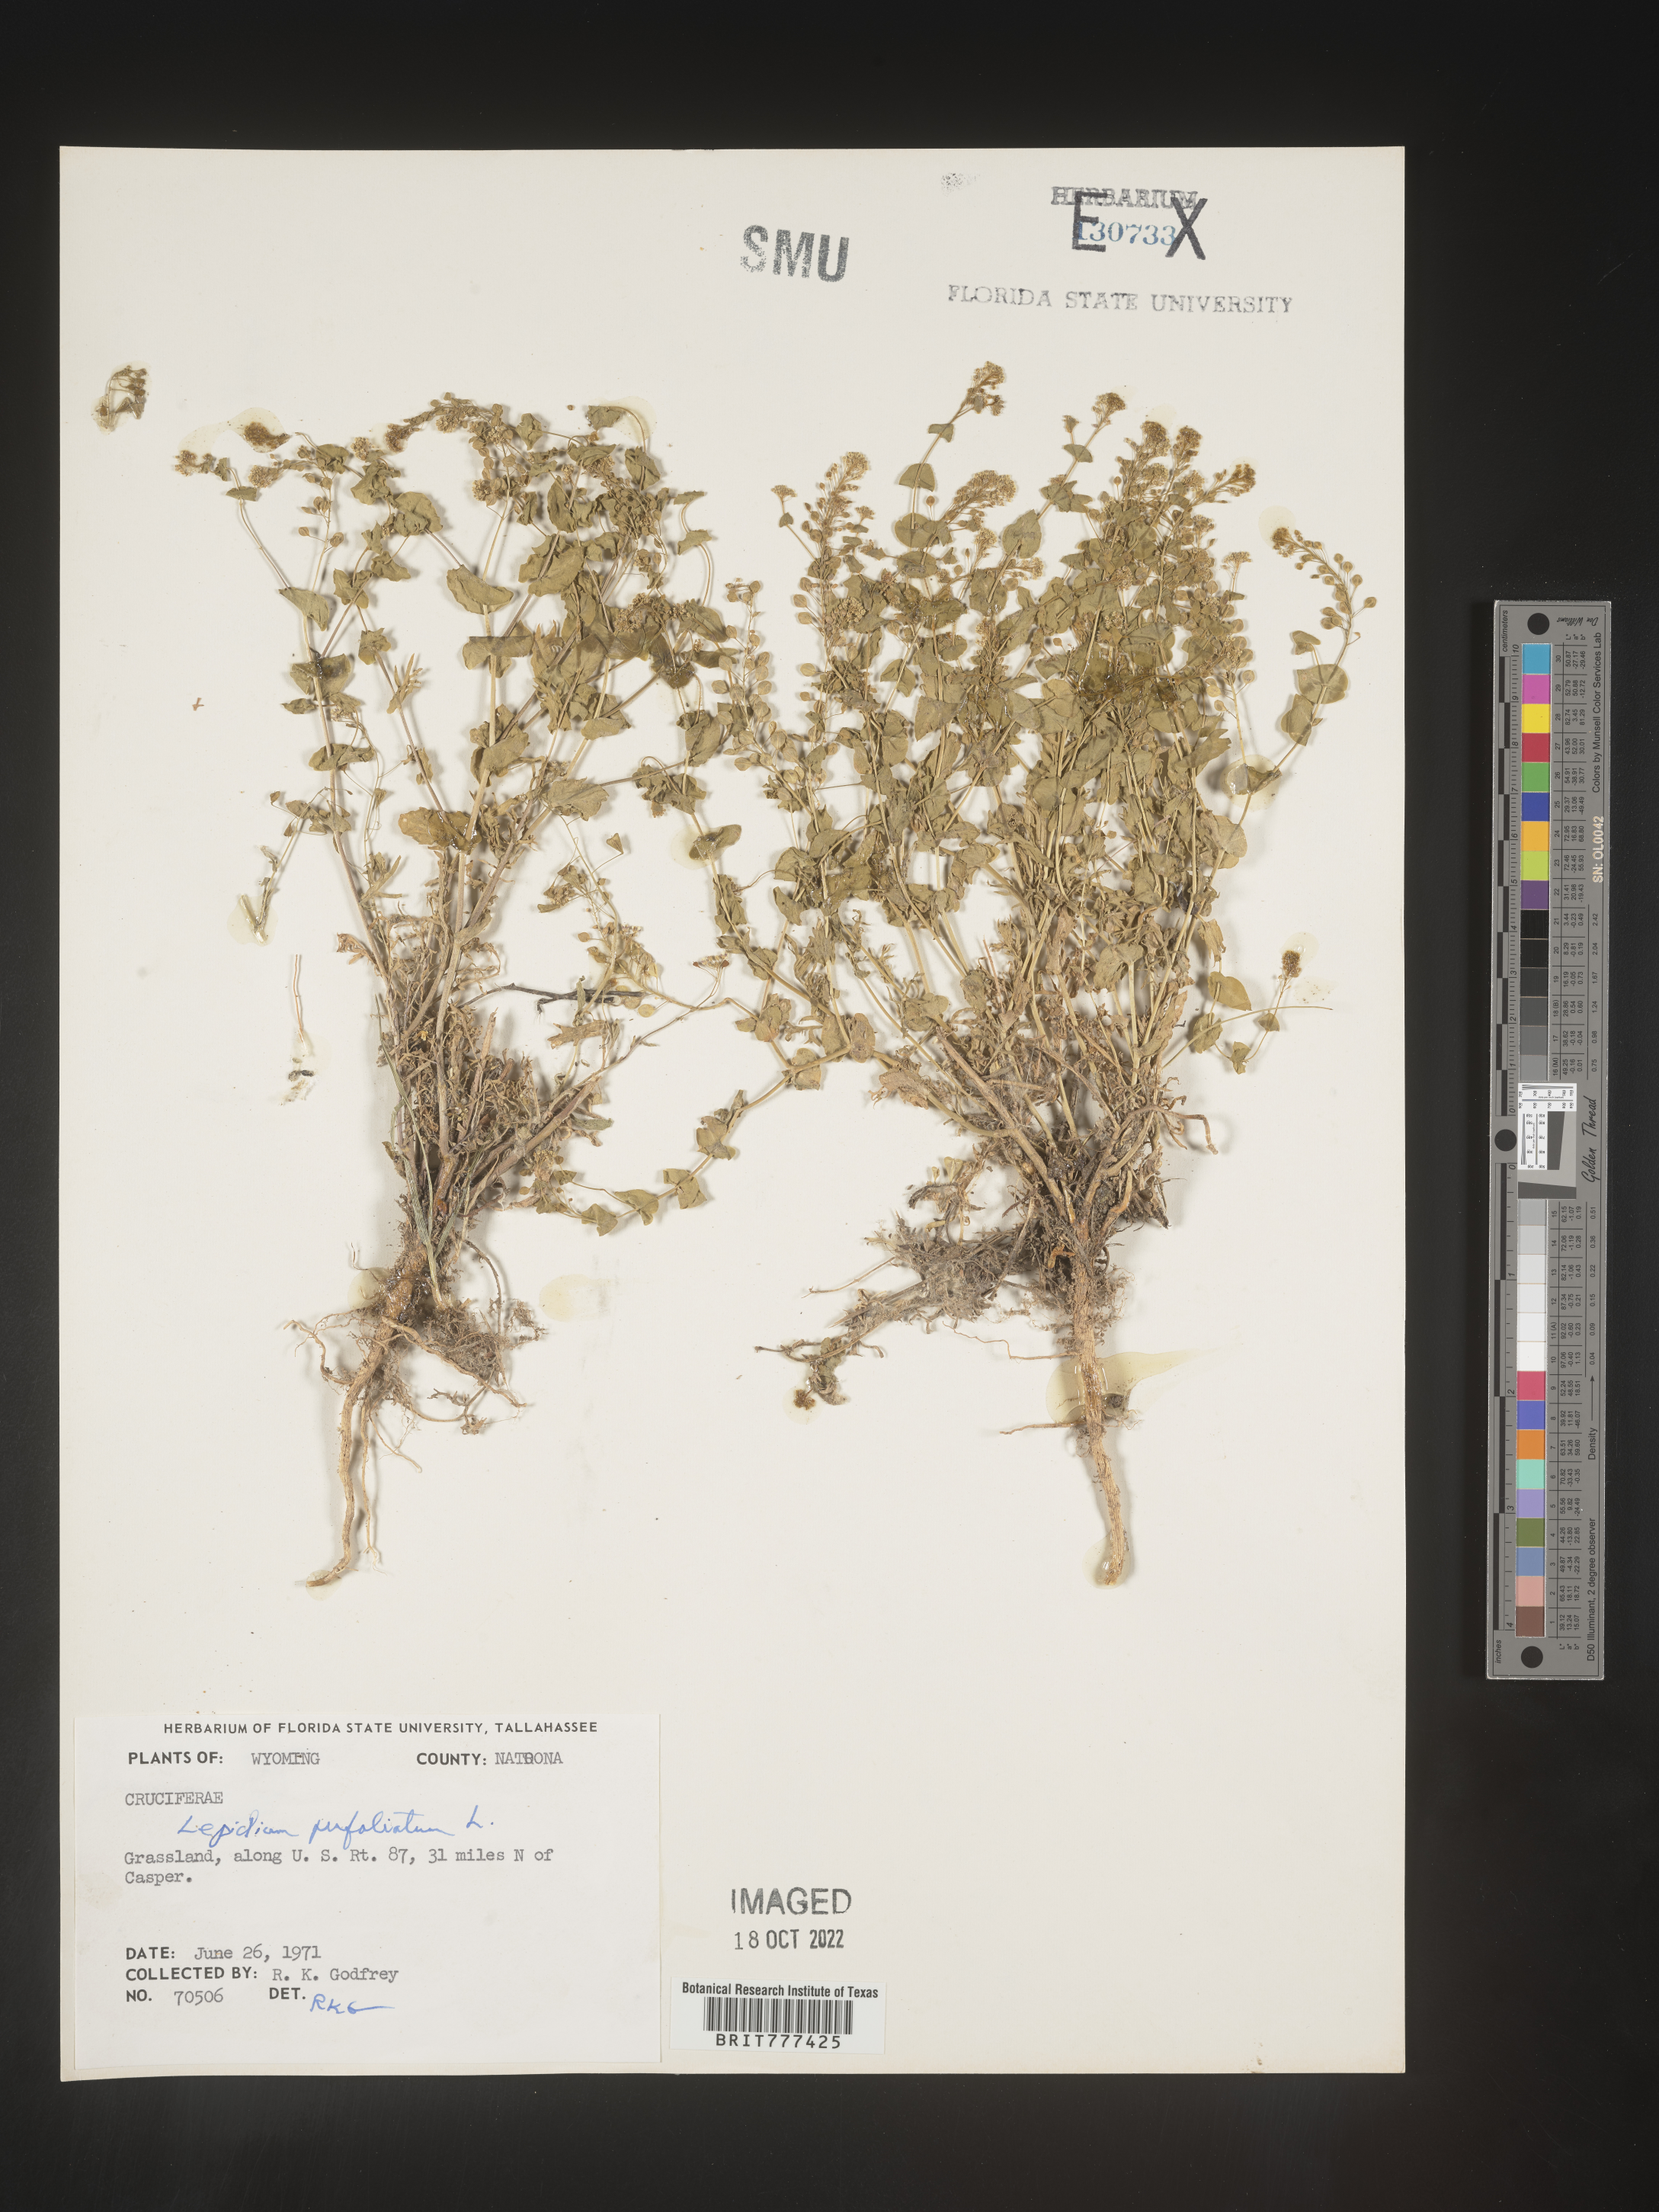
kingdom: Plantae
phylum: Tracheophyta
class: Magnoliopsida
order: Brassicales
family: Brassicaceae
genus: Lepidium
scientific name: Lepidium perfoliatum
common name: Perfoliate pepperwort
